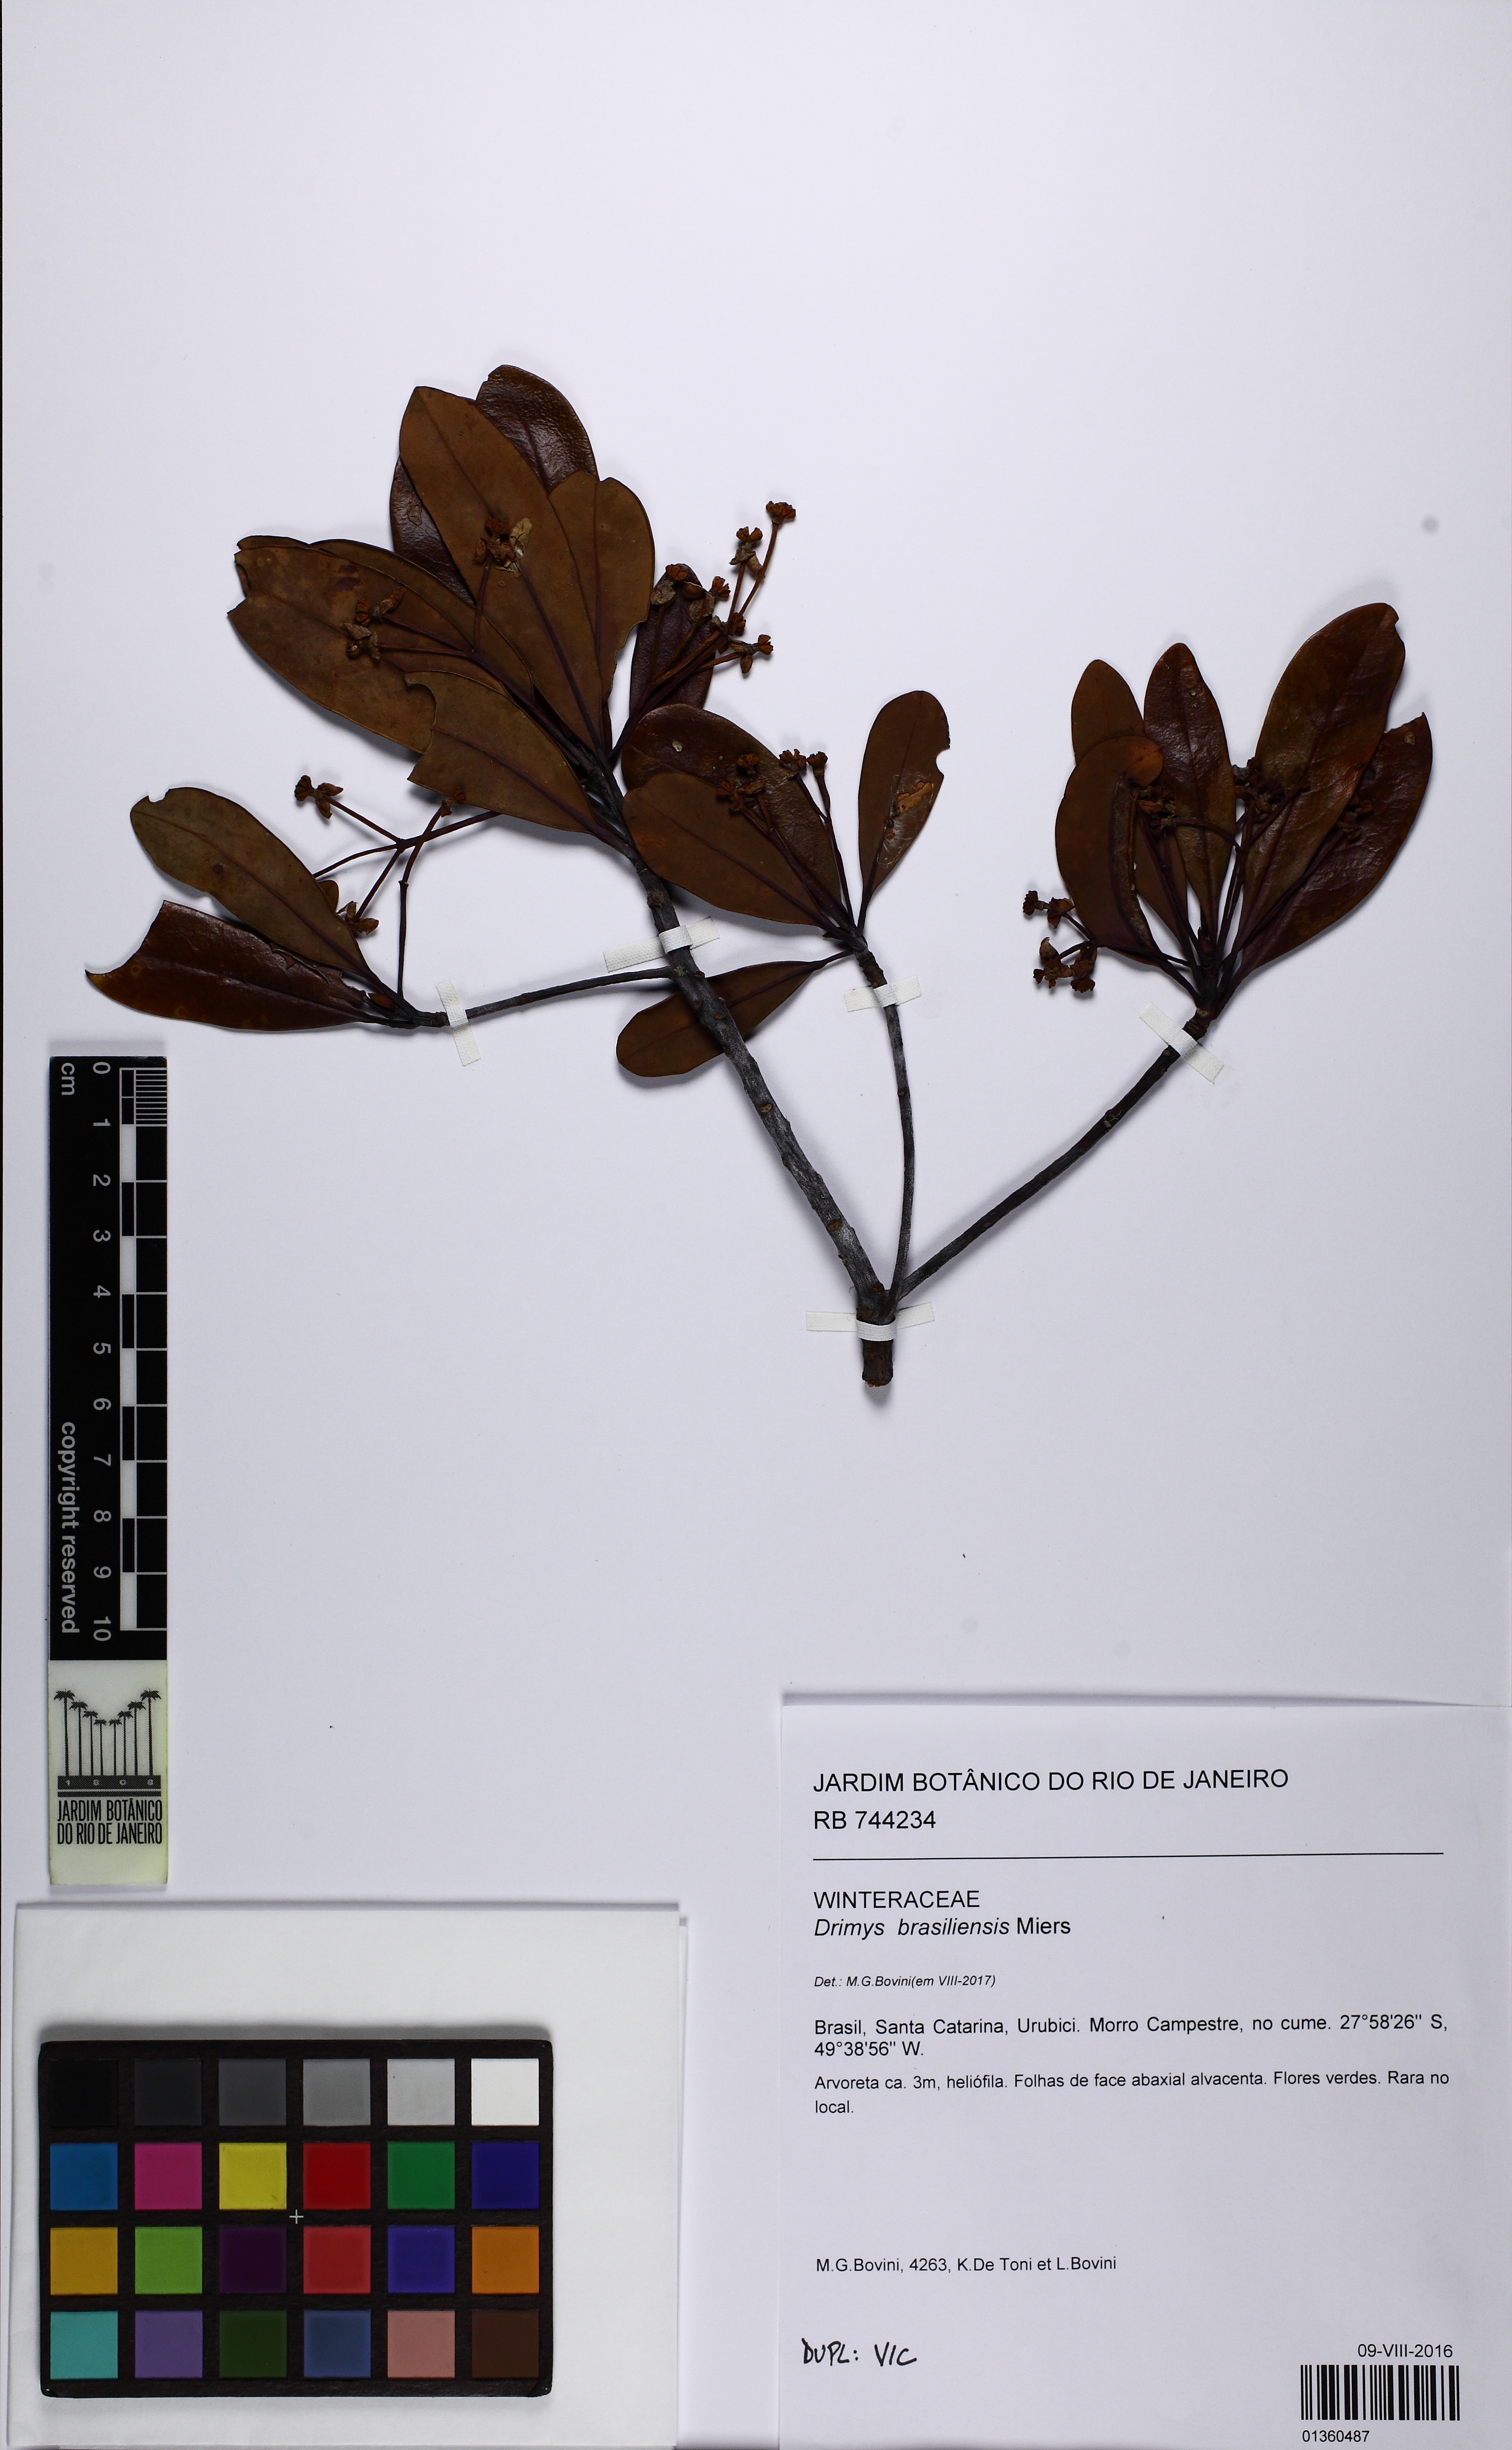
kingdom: Plantae
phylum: Tracheophyta
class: Magnoliopsida
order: Canellales
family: Winteraceae
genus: Drimys
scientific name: Drimys brasiliensis
